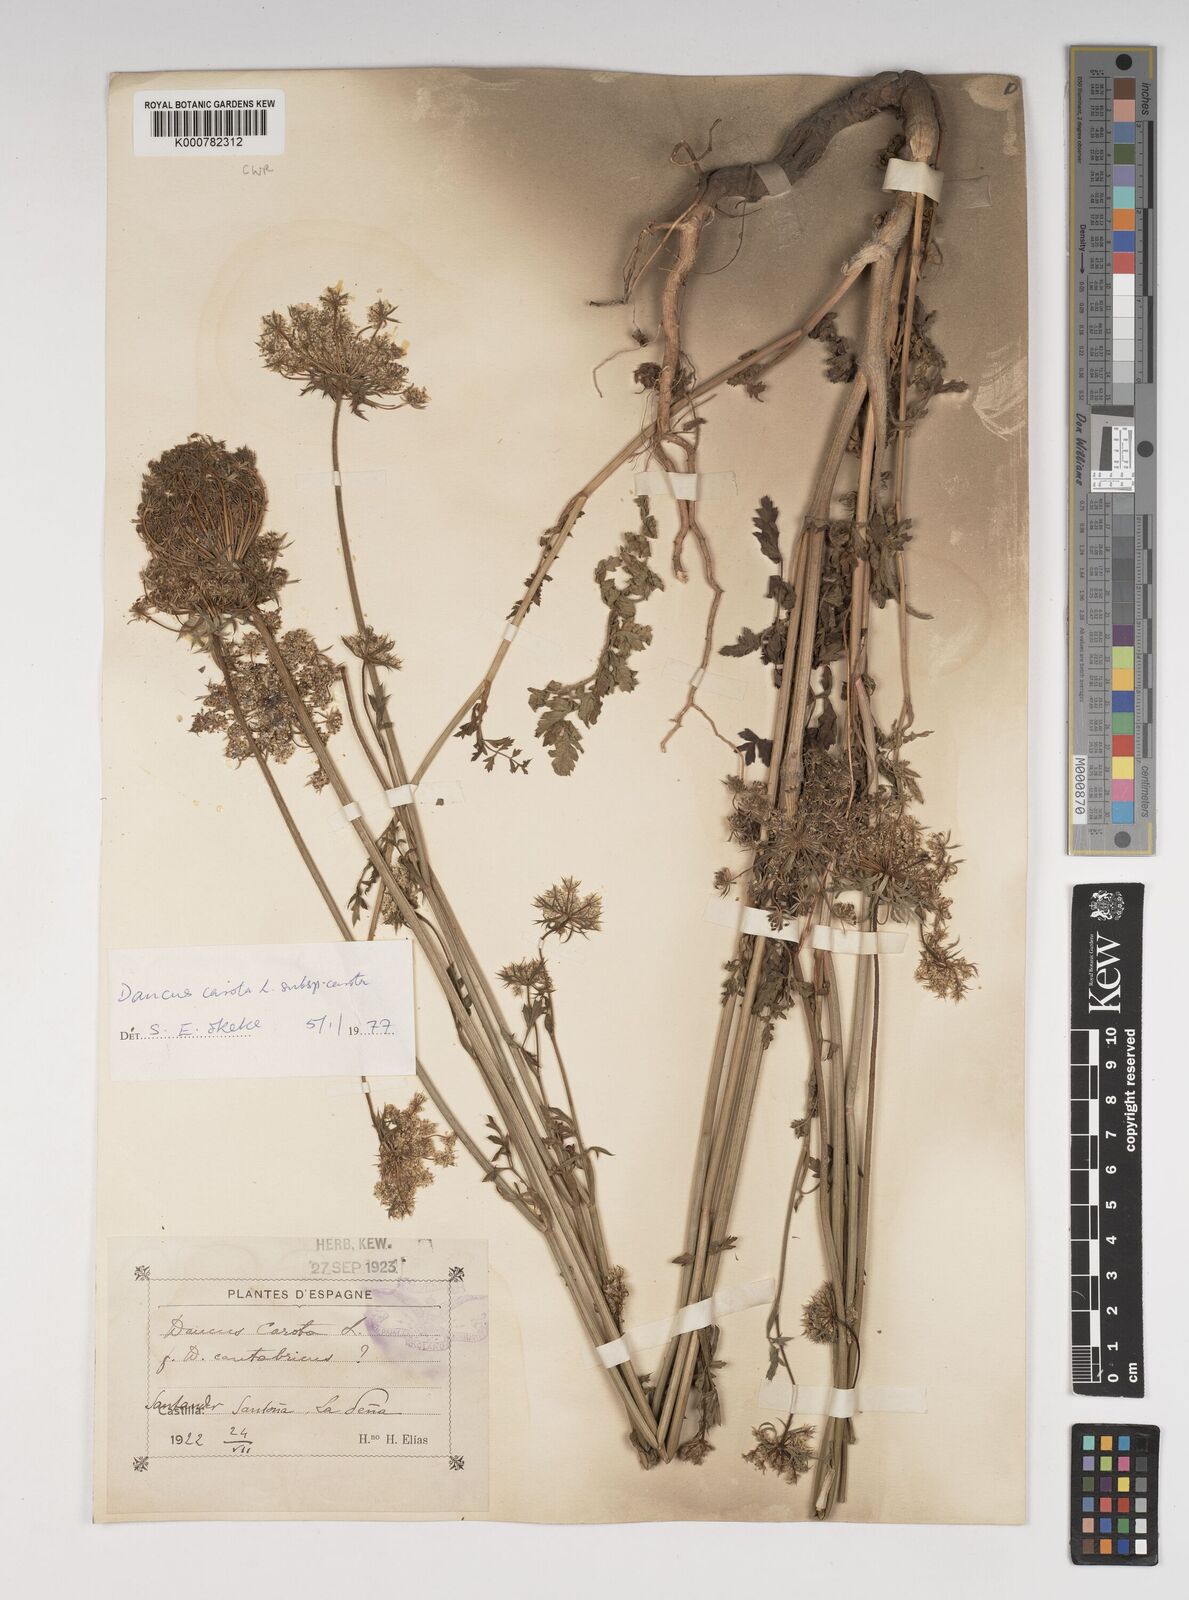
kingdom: Plantae
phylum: Tracheophyta
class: Magnoliopsida
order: Apiales
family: Apiaceae
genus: Daucus
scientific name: Daucus carota
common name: Wild carrot
